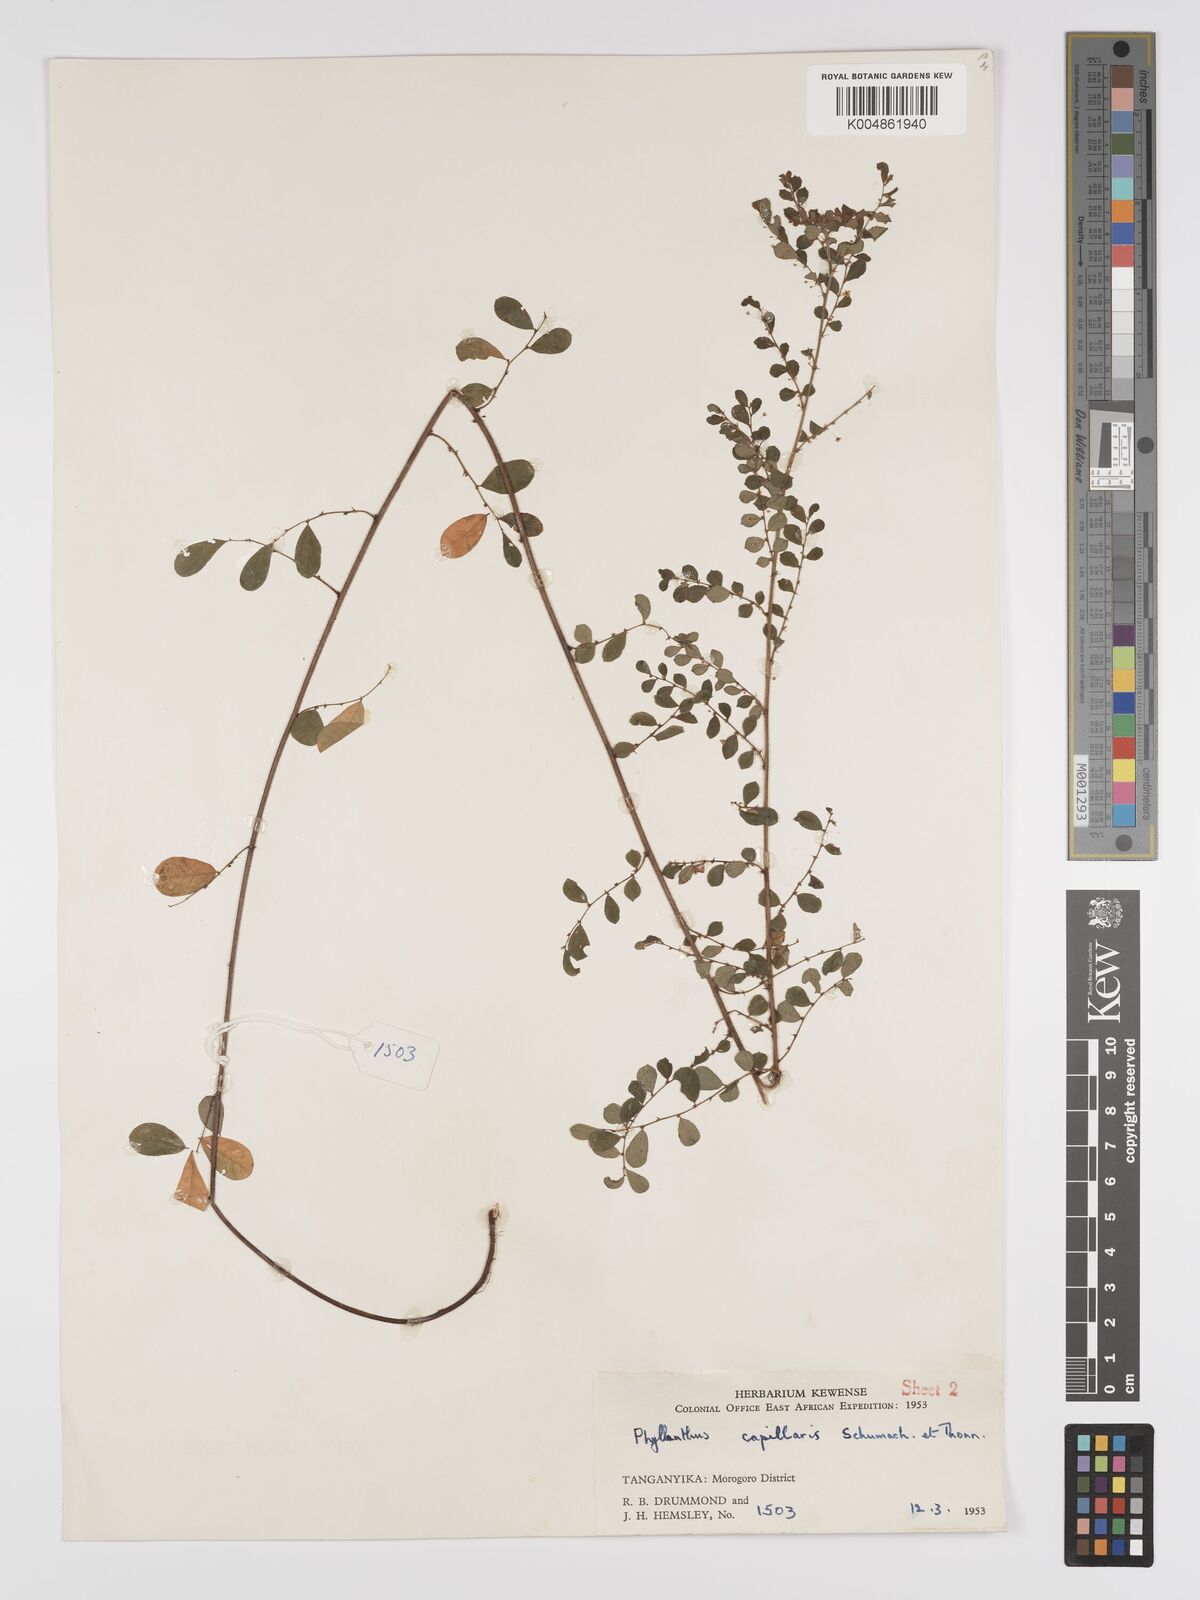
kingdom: Plantae
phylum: Tracheophyta
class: Magnoliopsida
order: Malpighiales
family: Phyllanthaceae
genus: Phyllanthus
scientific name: Phyllanthus nummulariifolius
